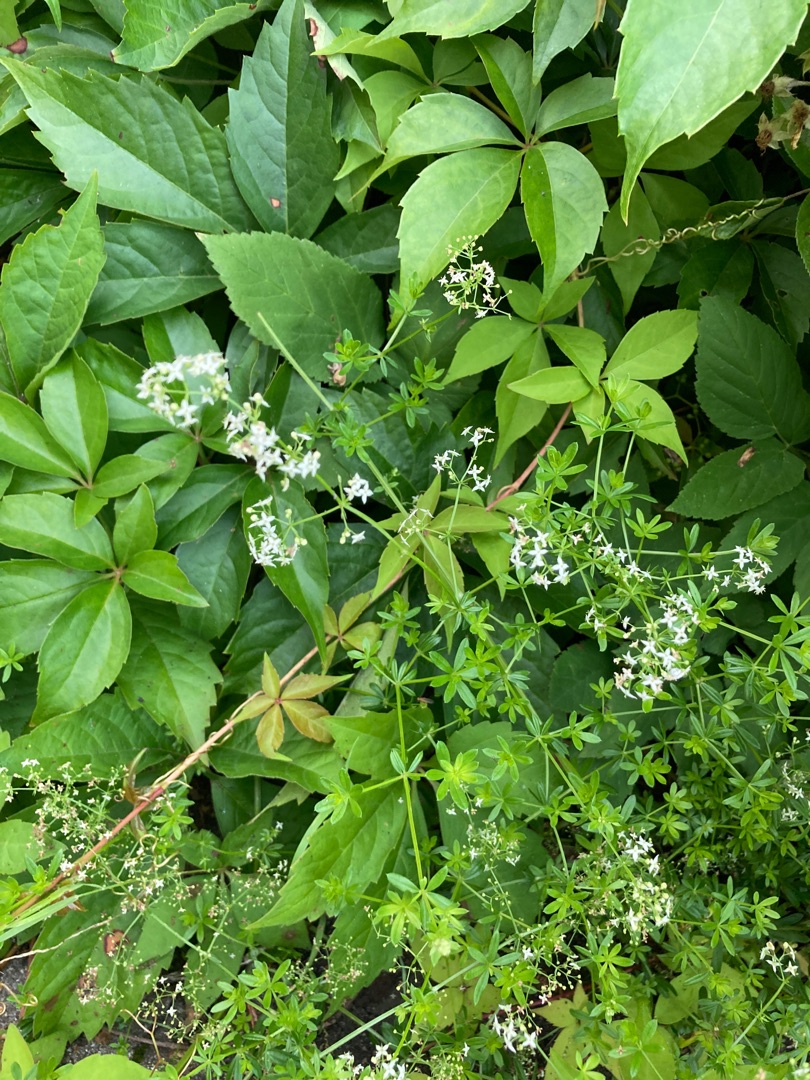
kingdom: Plantae
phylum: Tracheophyta
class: Magnoliopsida
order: Gentianales
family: Rubiaceae
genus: Galium
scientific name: Galium mollugo
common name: Hvid snerre
